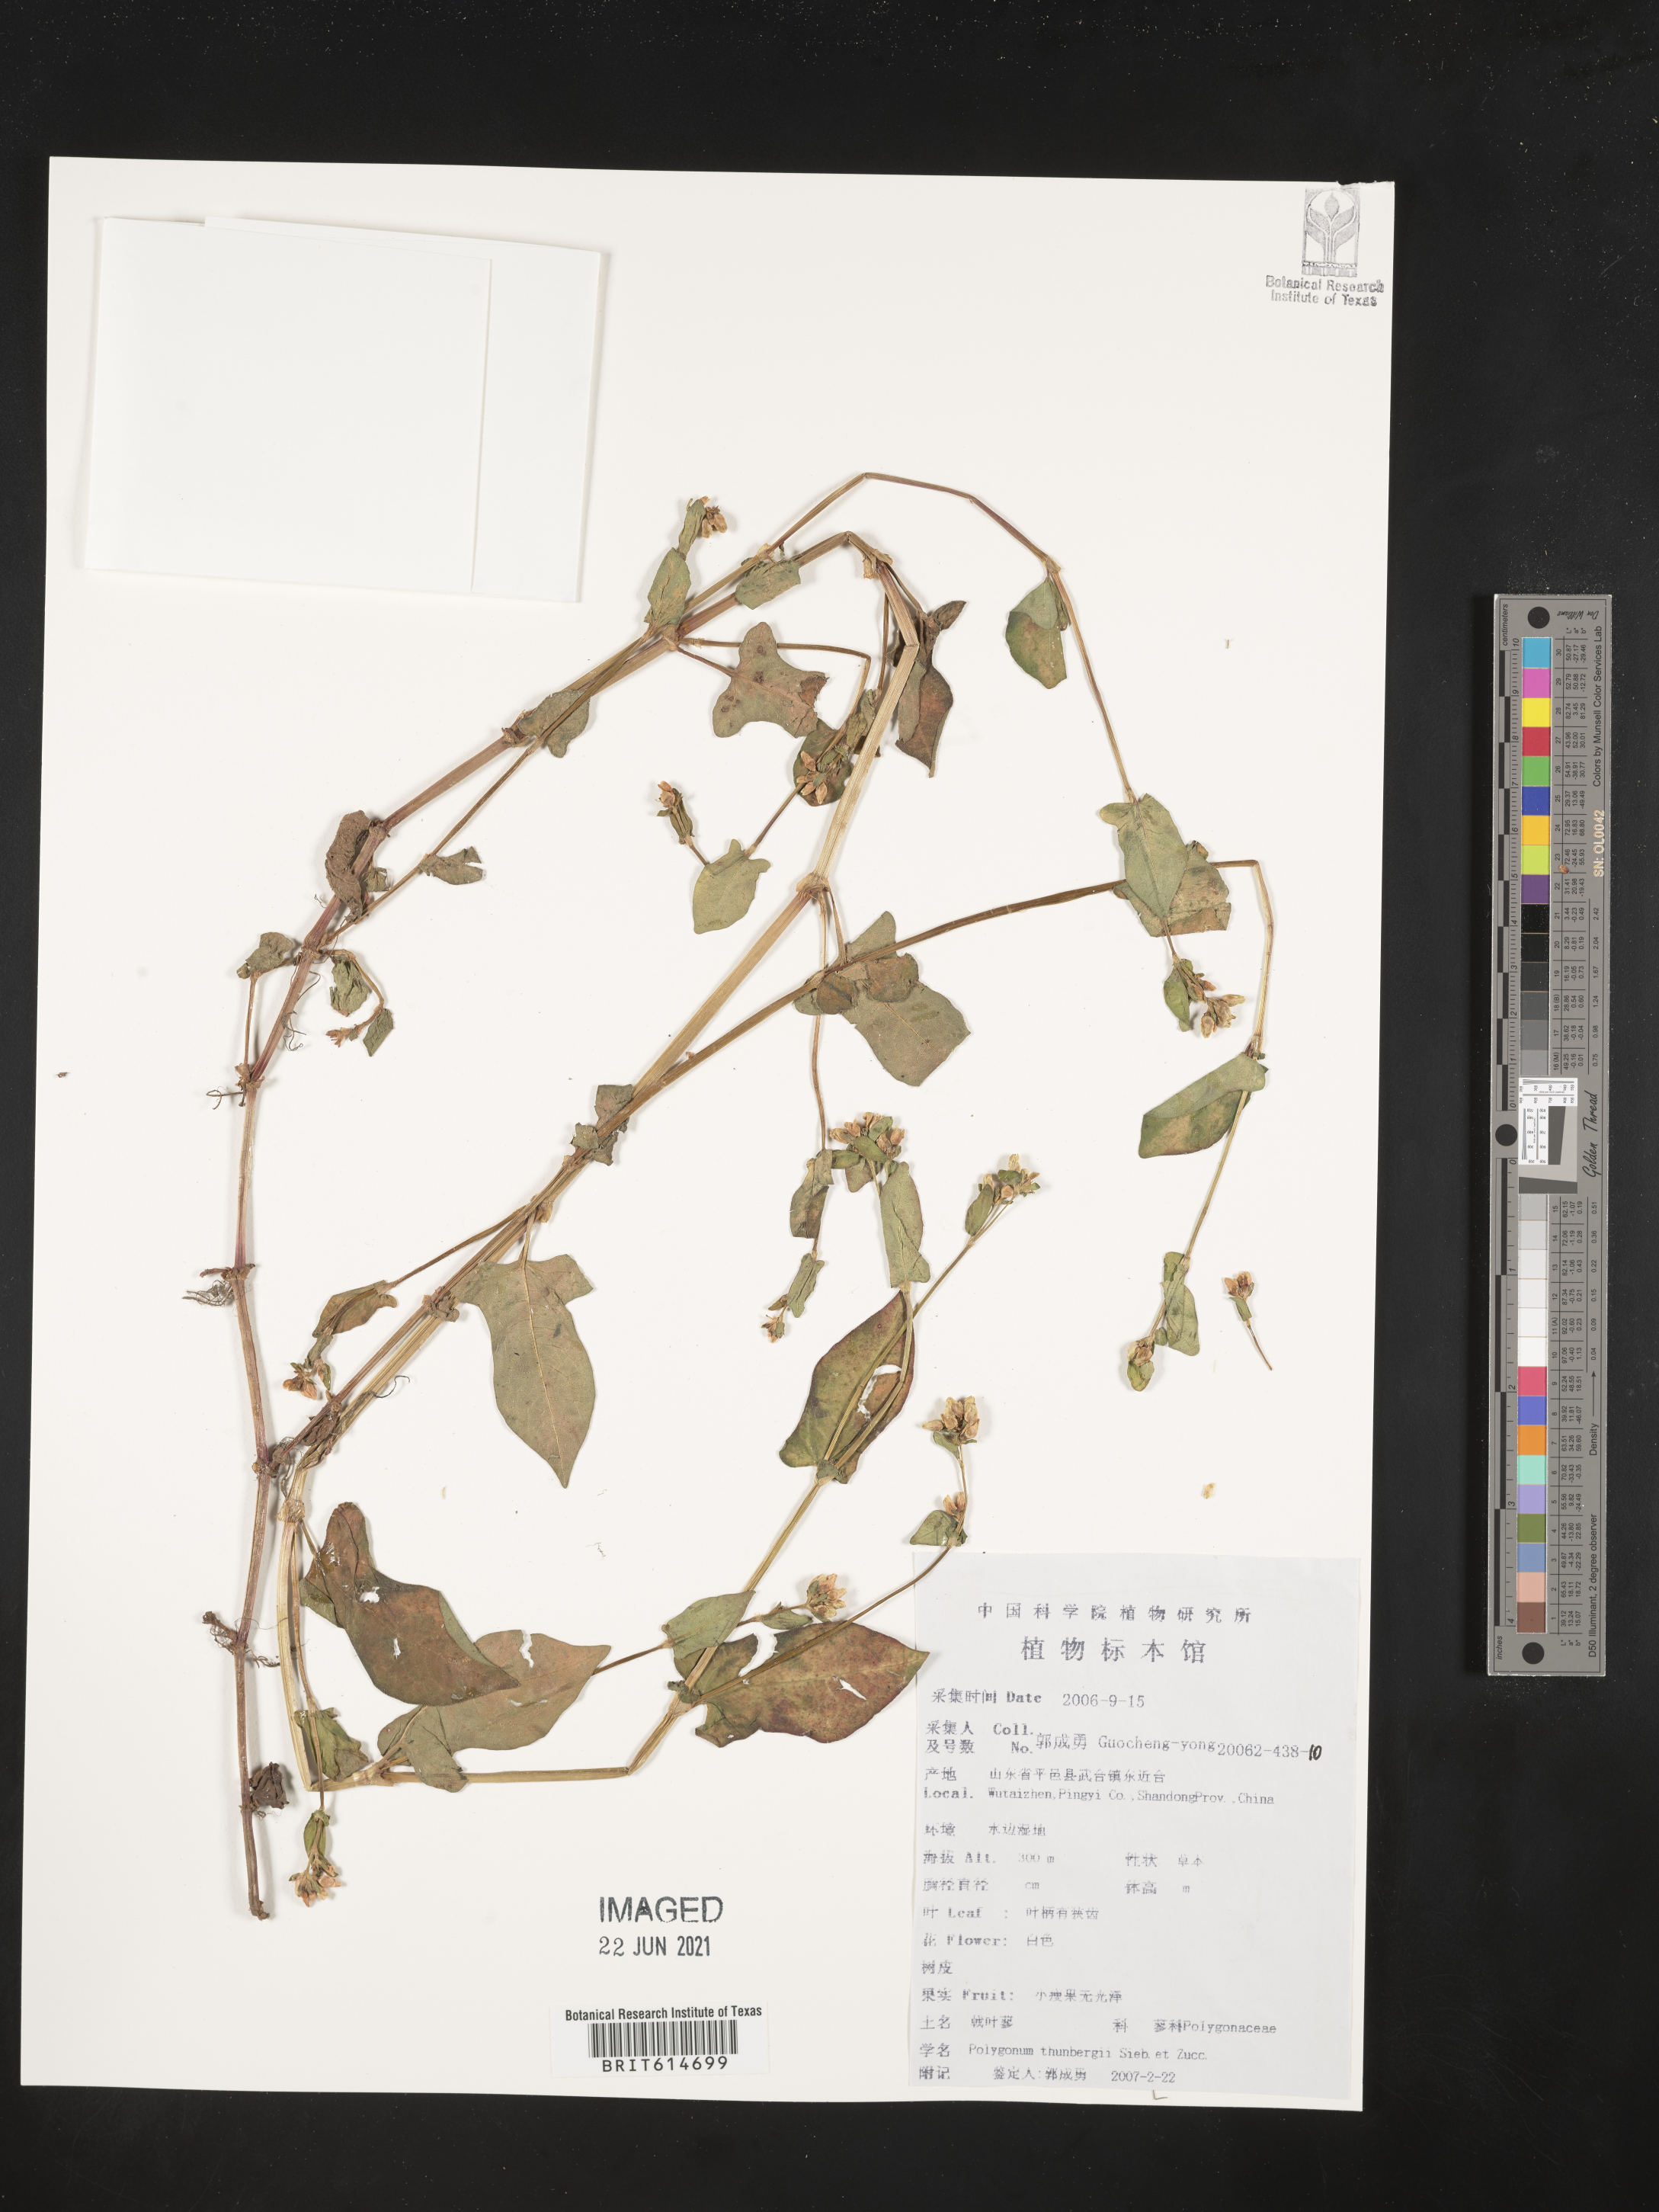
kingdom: Plantae
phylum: Tracheophyta
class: Magnoliopsida
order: Caryophyllales
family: Polygonaceae
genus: Persicaria
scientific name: Persicaria thunbergii
